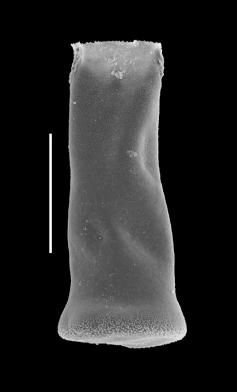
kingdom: Protozoa
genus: Belonechitina
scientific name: Belonechitina
